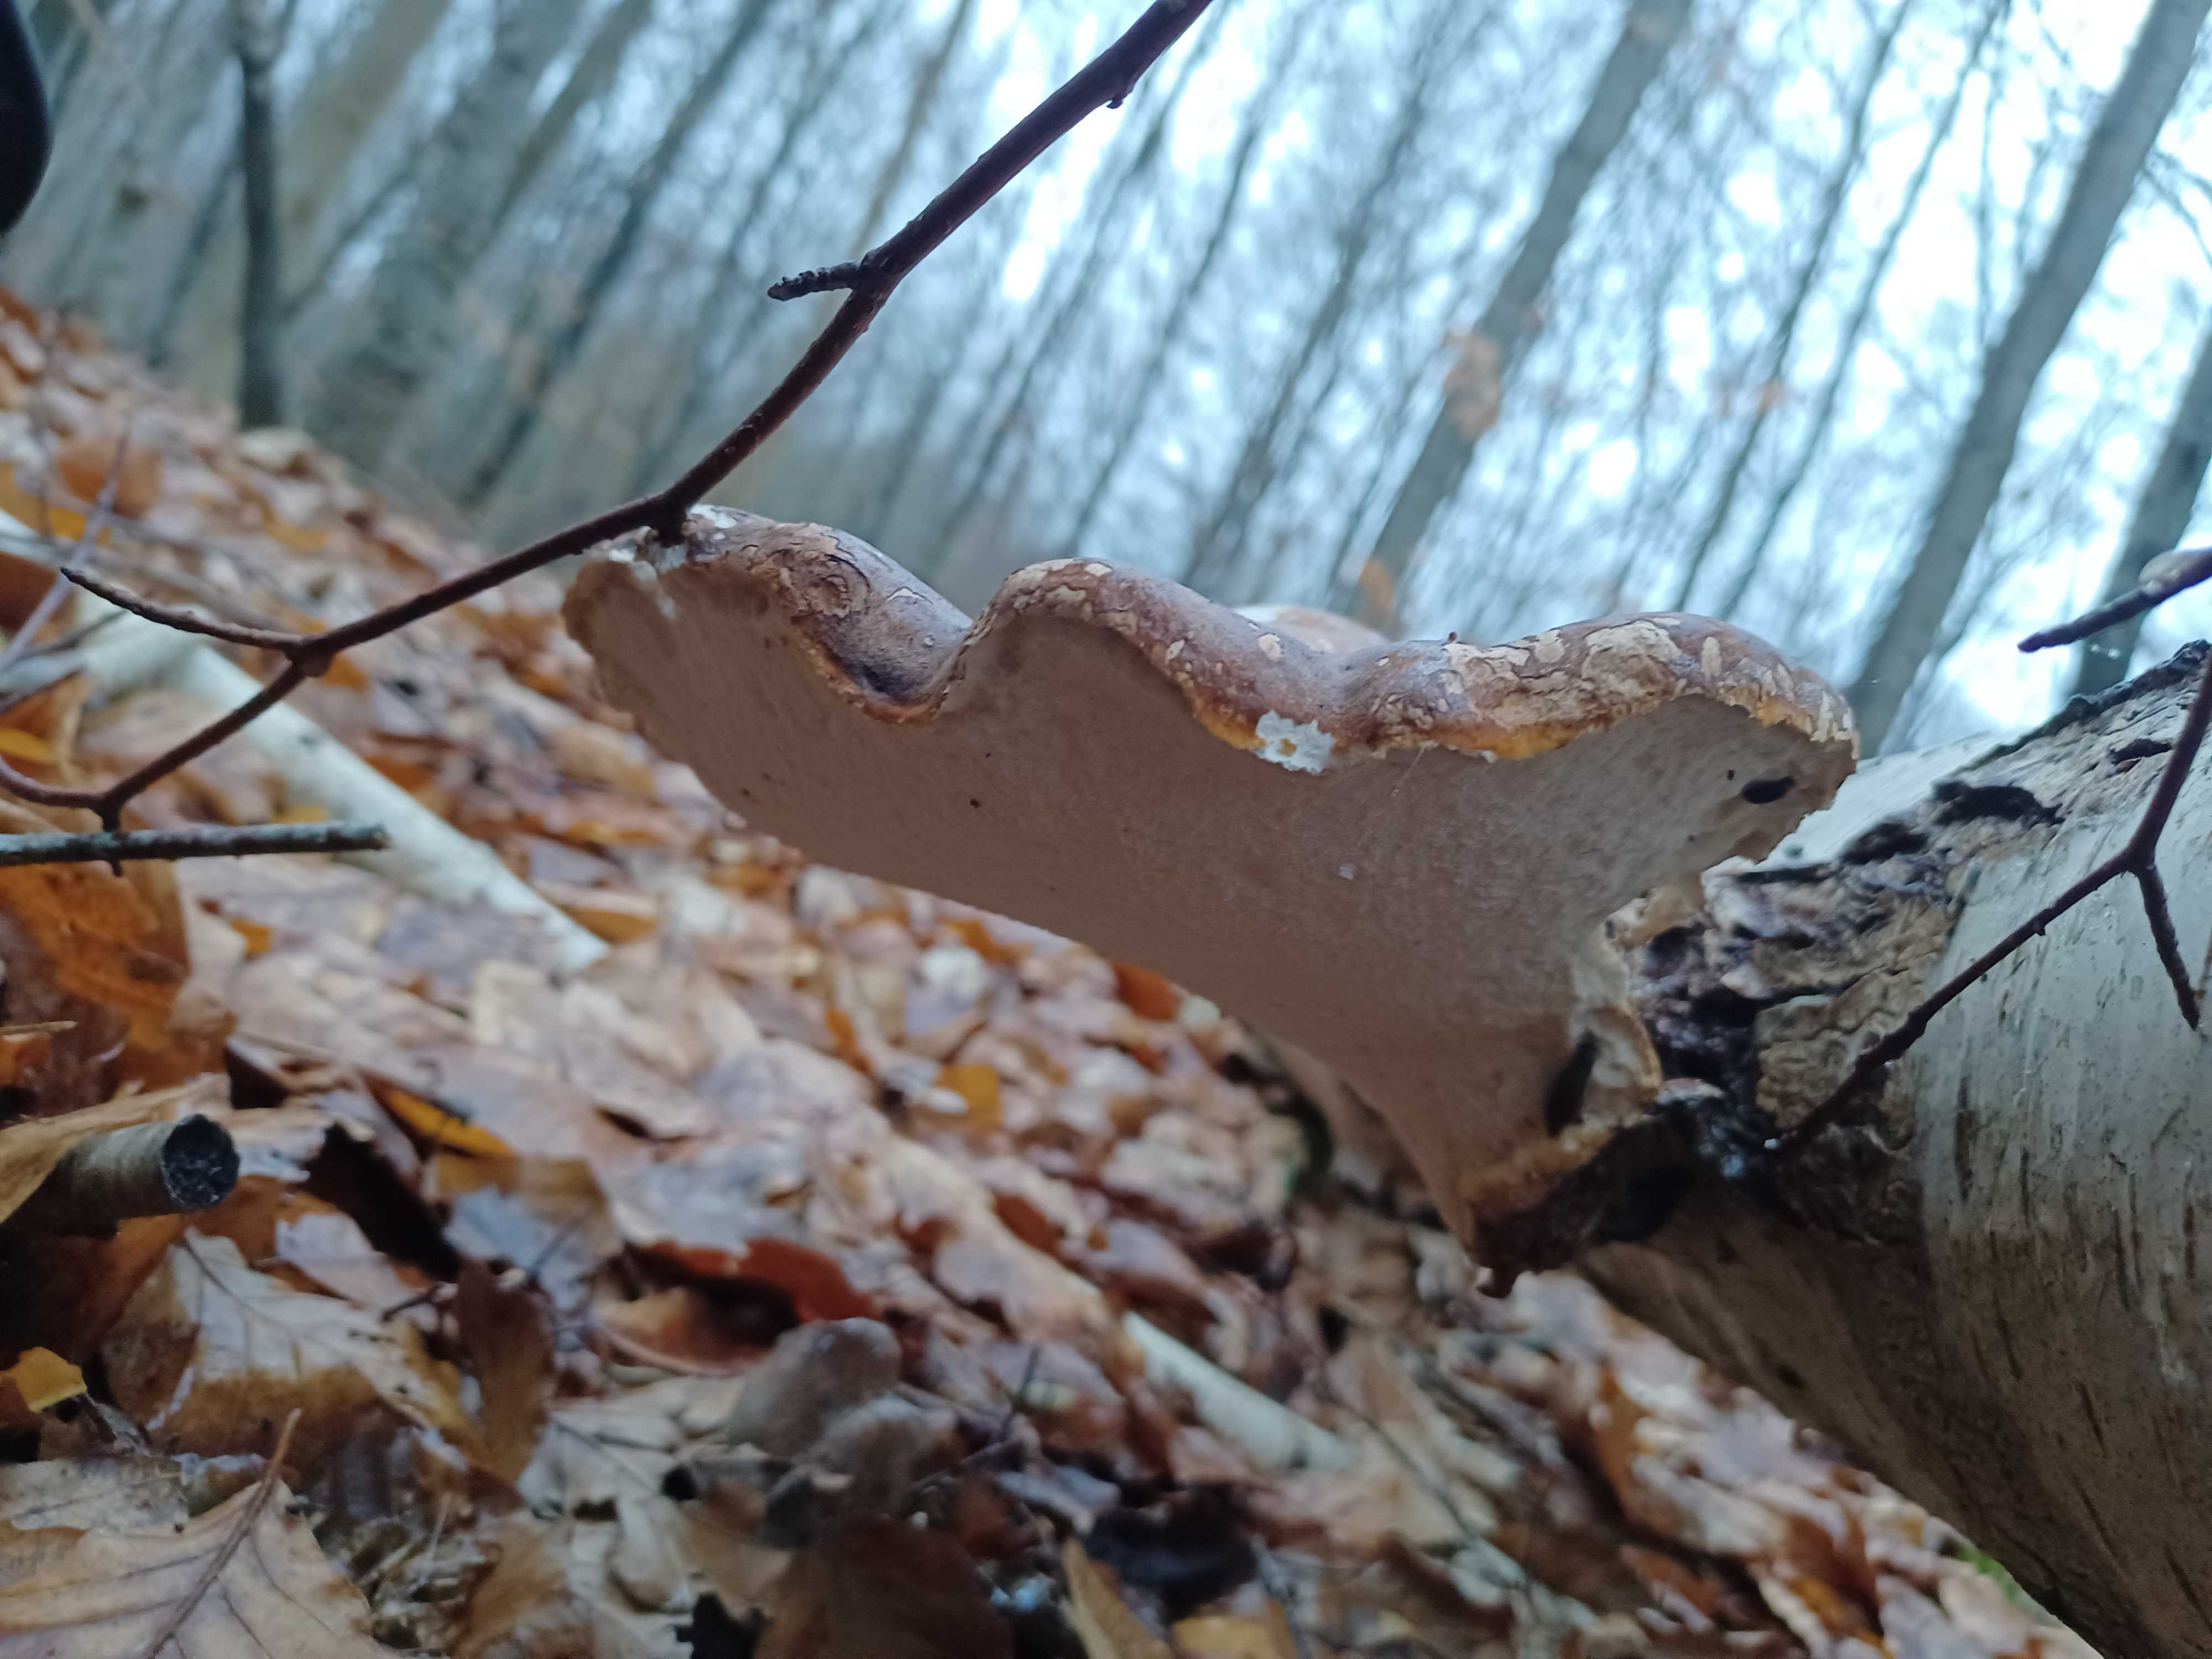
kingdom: Fungi
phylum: Basidiomycota
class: Agaricomycetes
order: Polyporales
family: Fomitopsidaceae
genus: Fomitopsis
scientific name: Fomitopsis betulina
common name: birkeporesvamp
